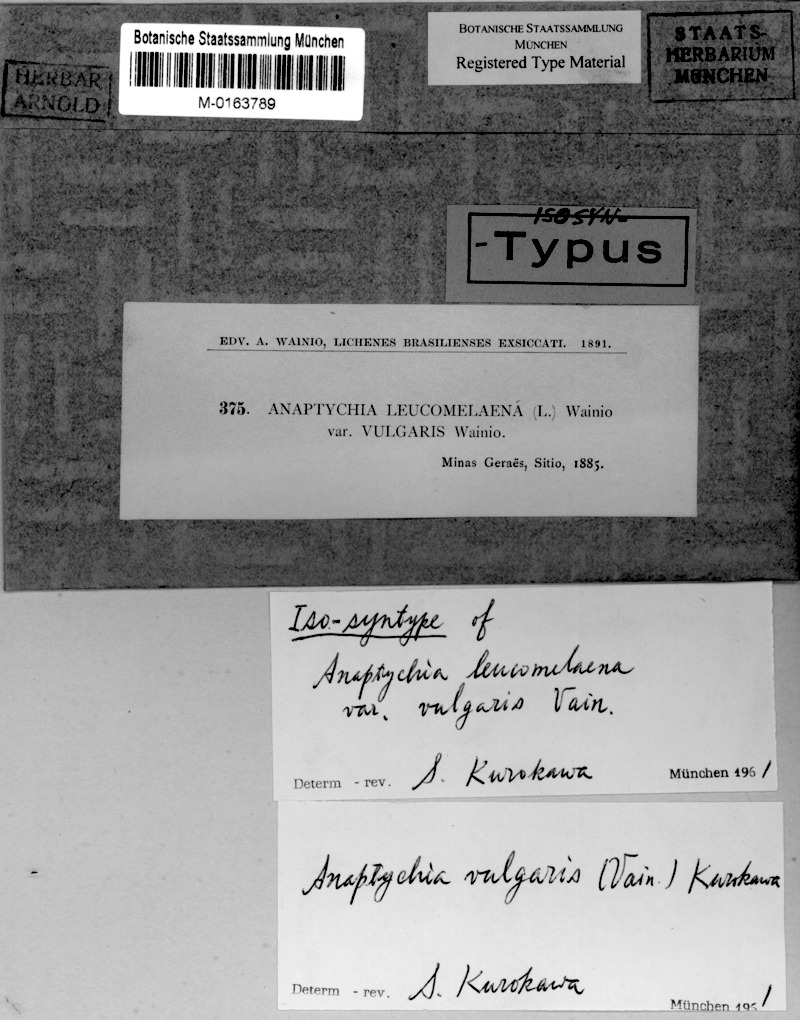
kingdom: Fungi
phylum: Ascomycota
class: Lecanoromycetes
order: Caliciales
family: Physciaceae
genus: Leucodermia
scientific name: Leucodermia vulgaris
